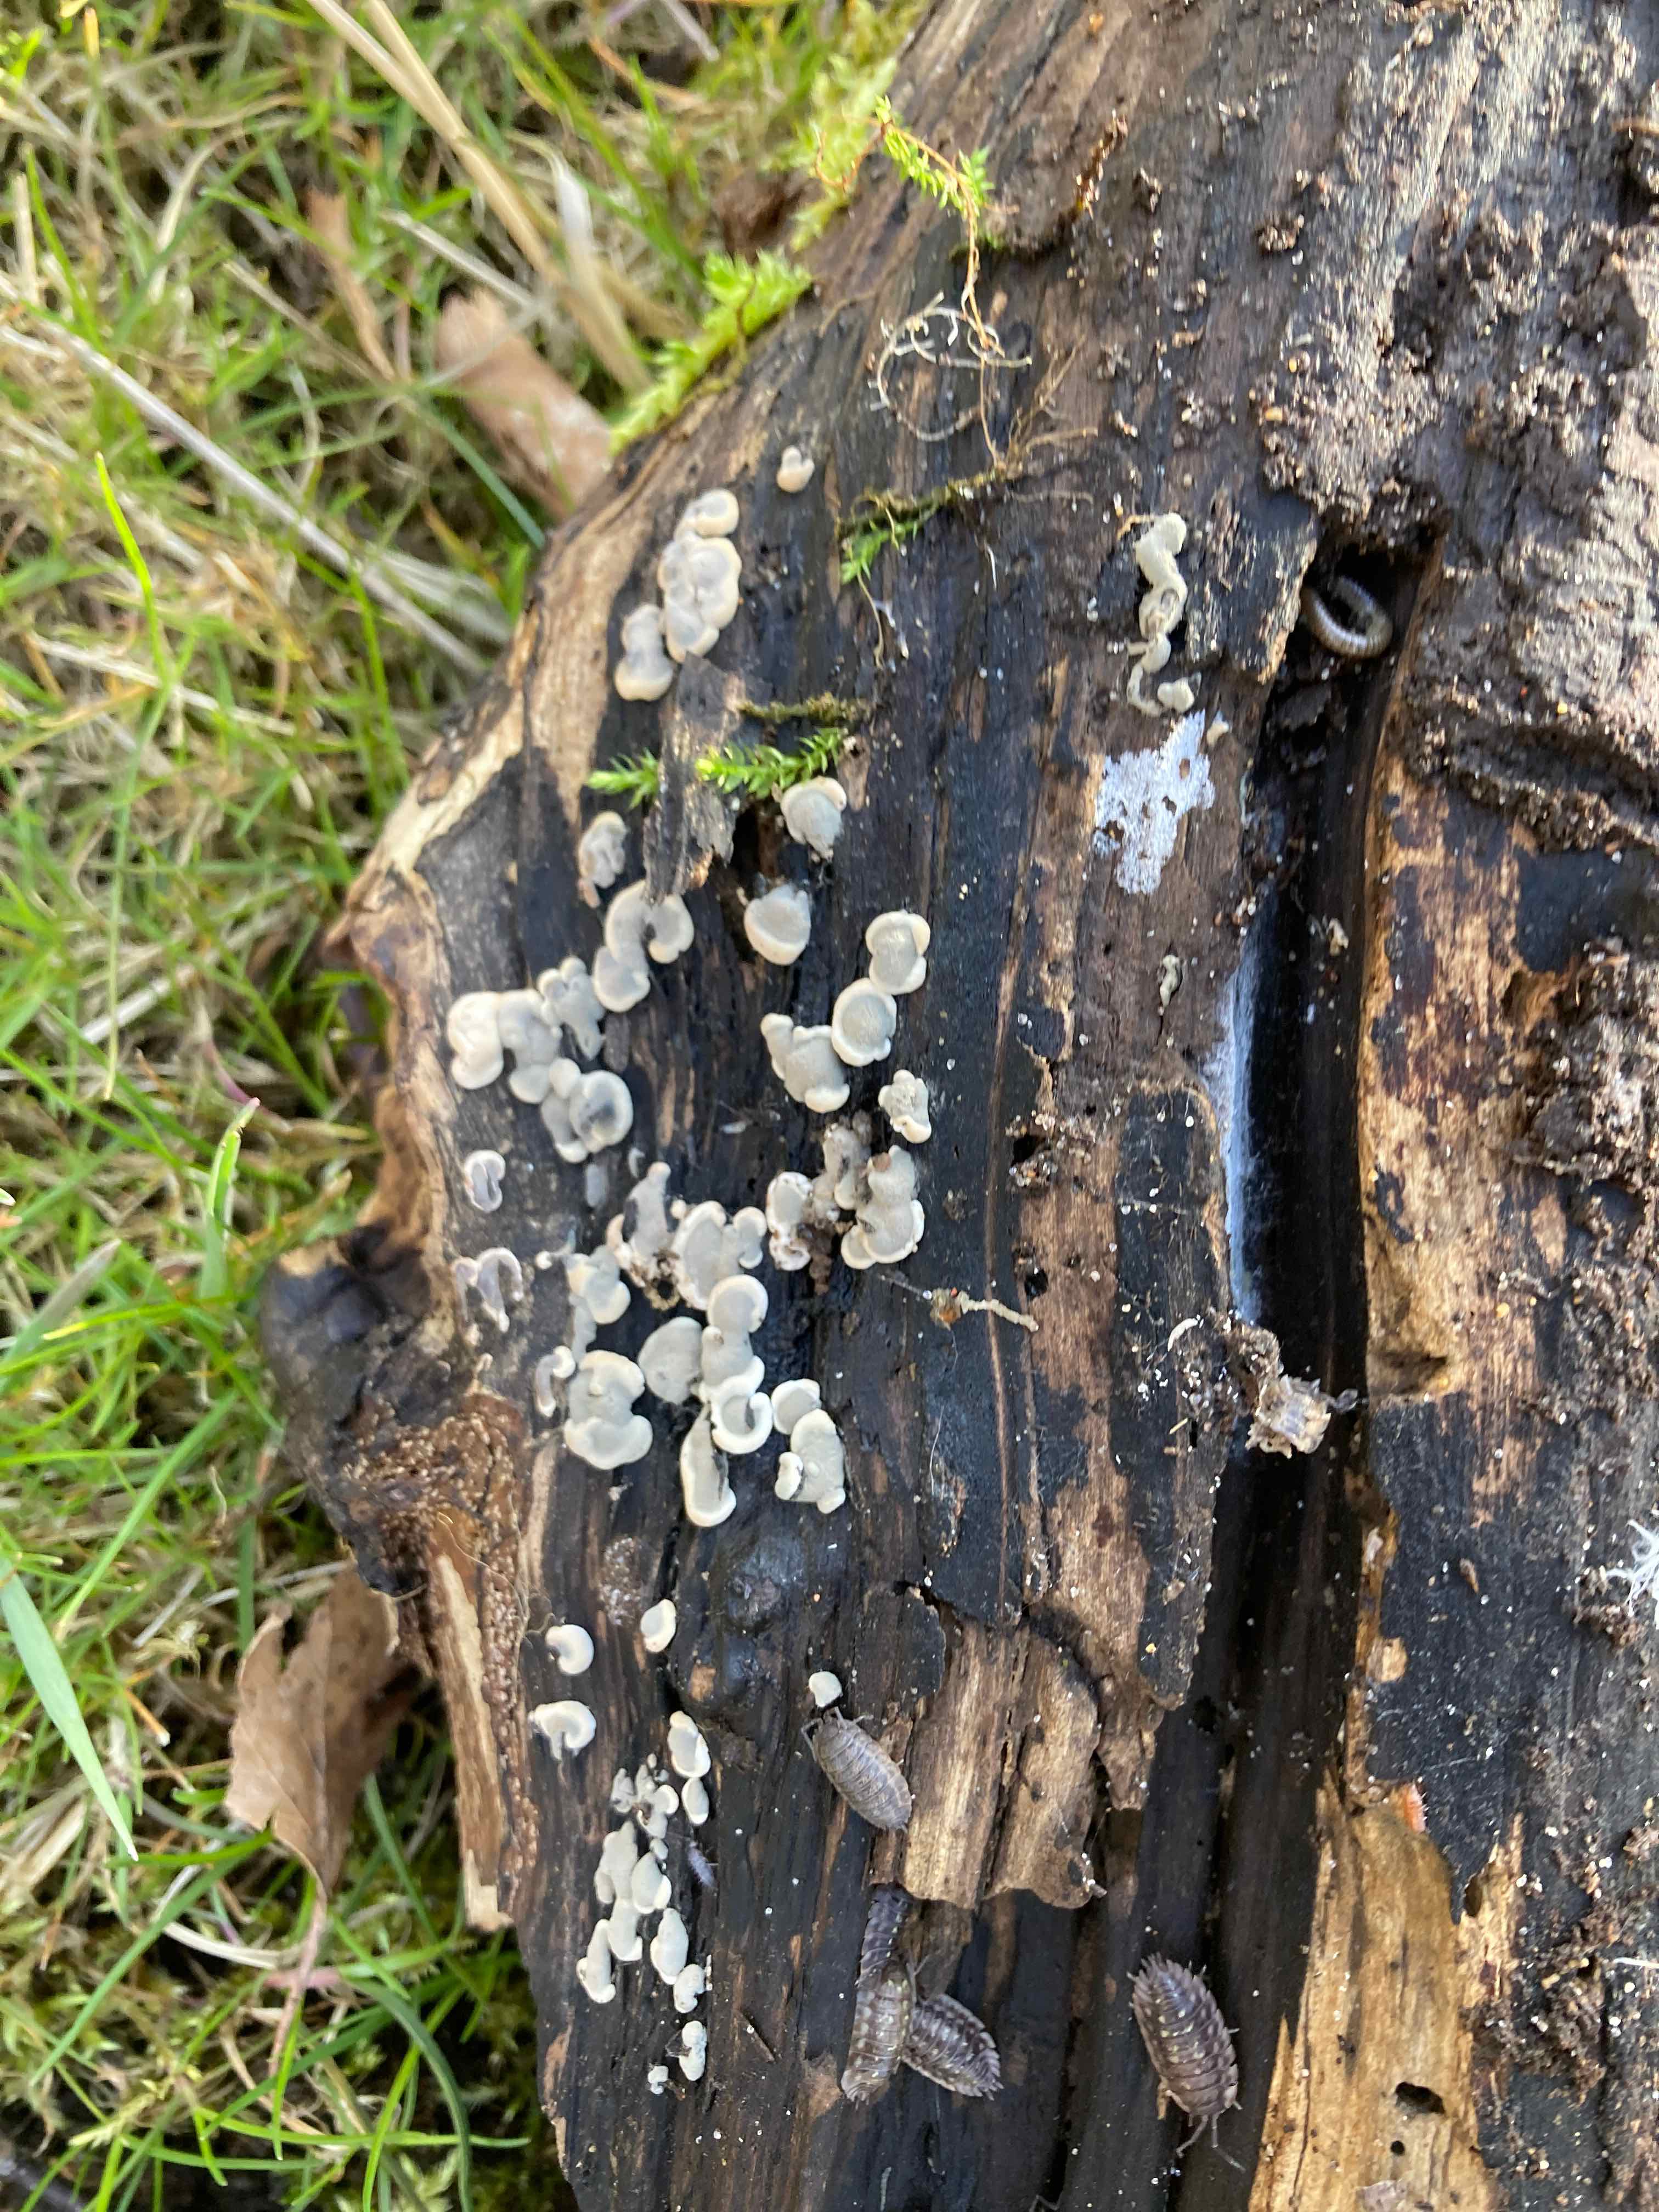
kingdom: Fungi
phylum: Ascomycota
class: Sordariomycetes
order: Xylariales
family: Xylariaceae
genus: Kretzschmaria
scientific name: Kretzschmaria deusta
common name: stor kulsvamp
